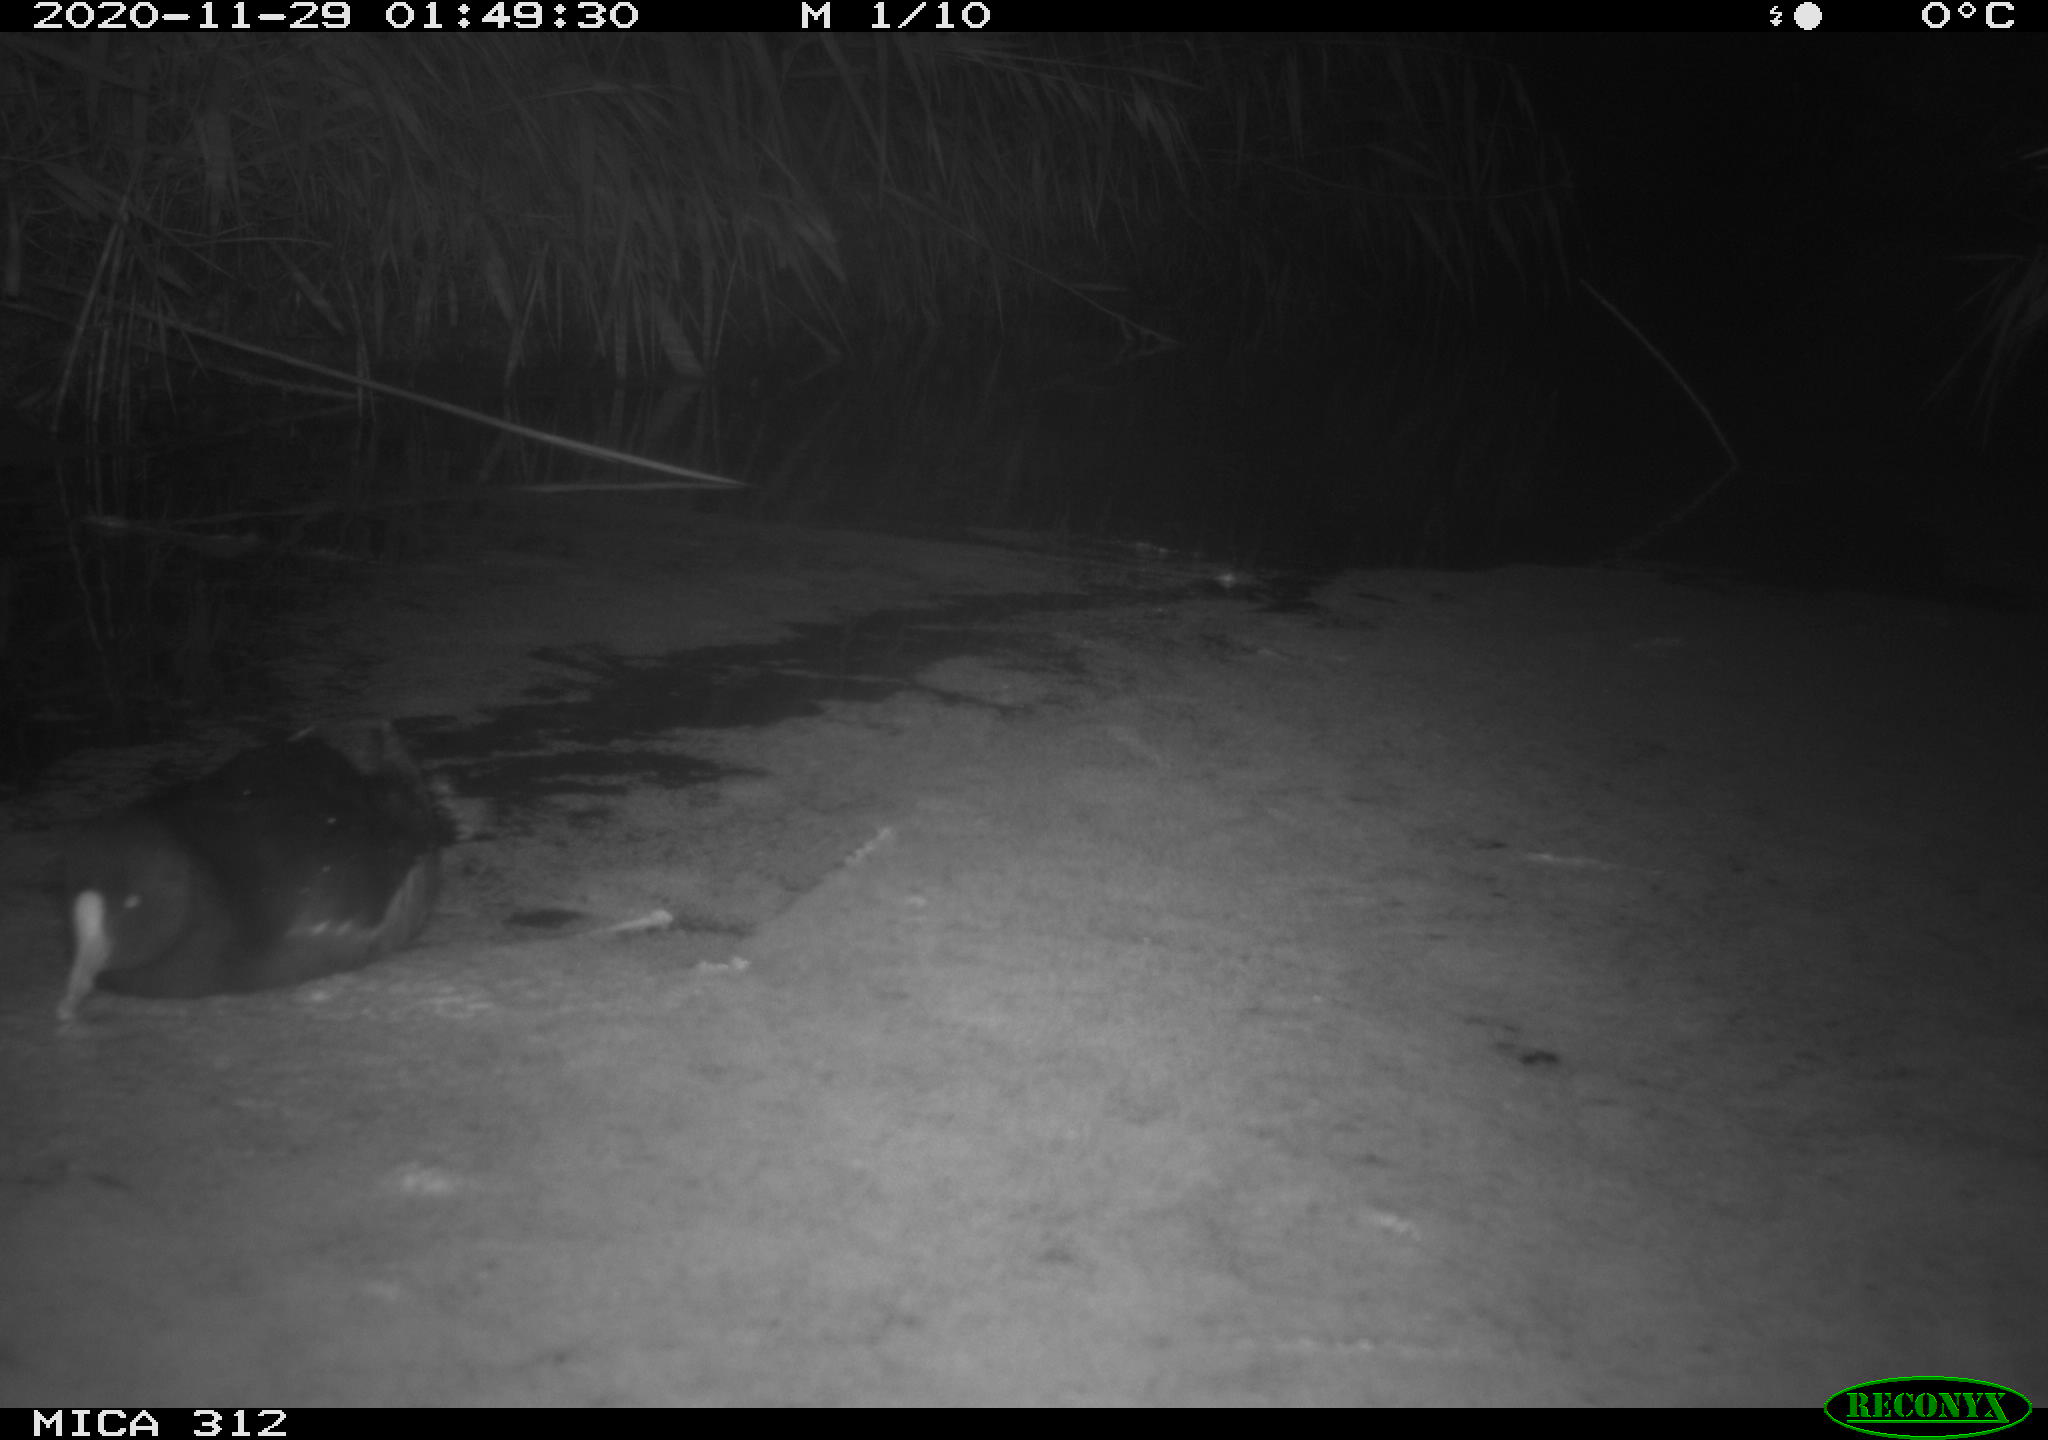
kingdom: Animalia
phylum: Chordata
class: Aves
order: Gruiformes
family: Rallidae
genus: Gallinula
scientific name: Gallinula chloropus
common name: Common moorhen
